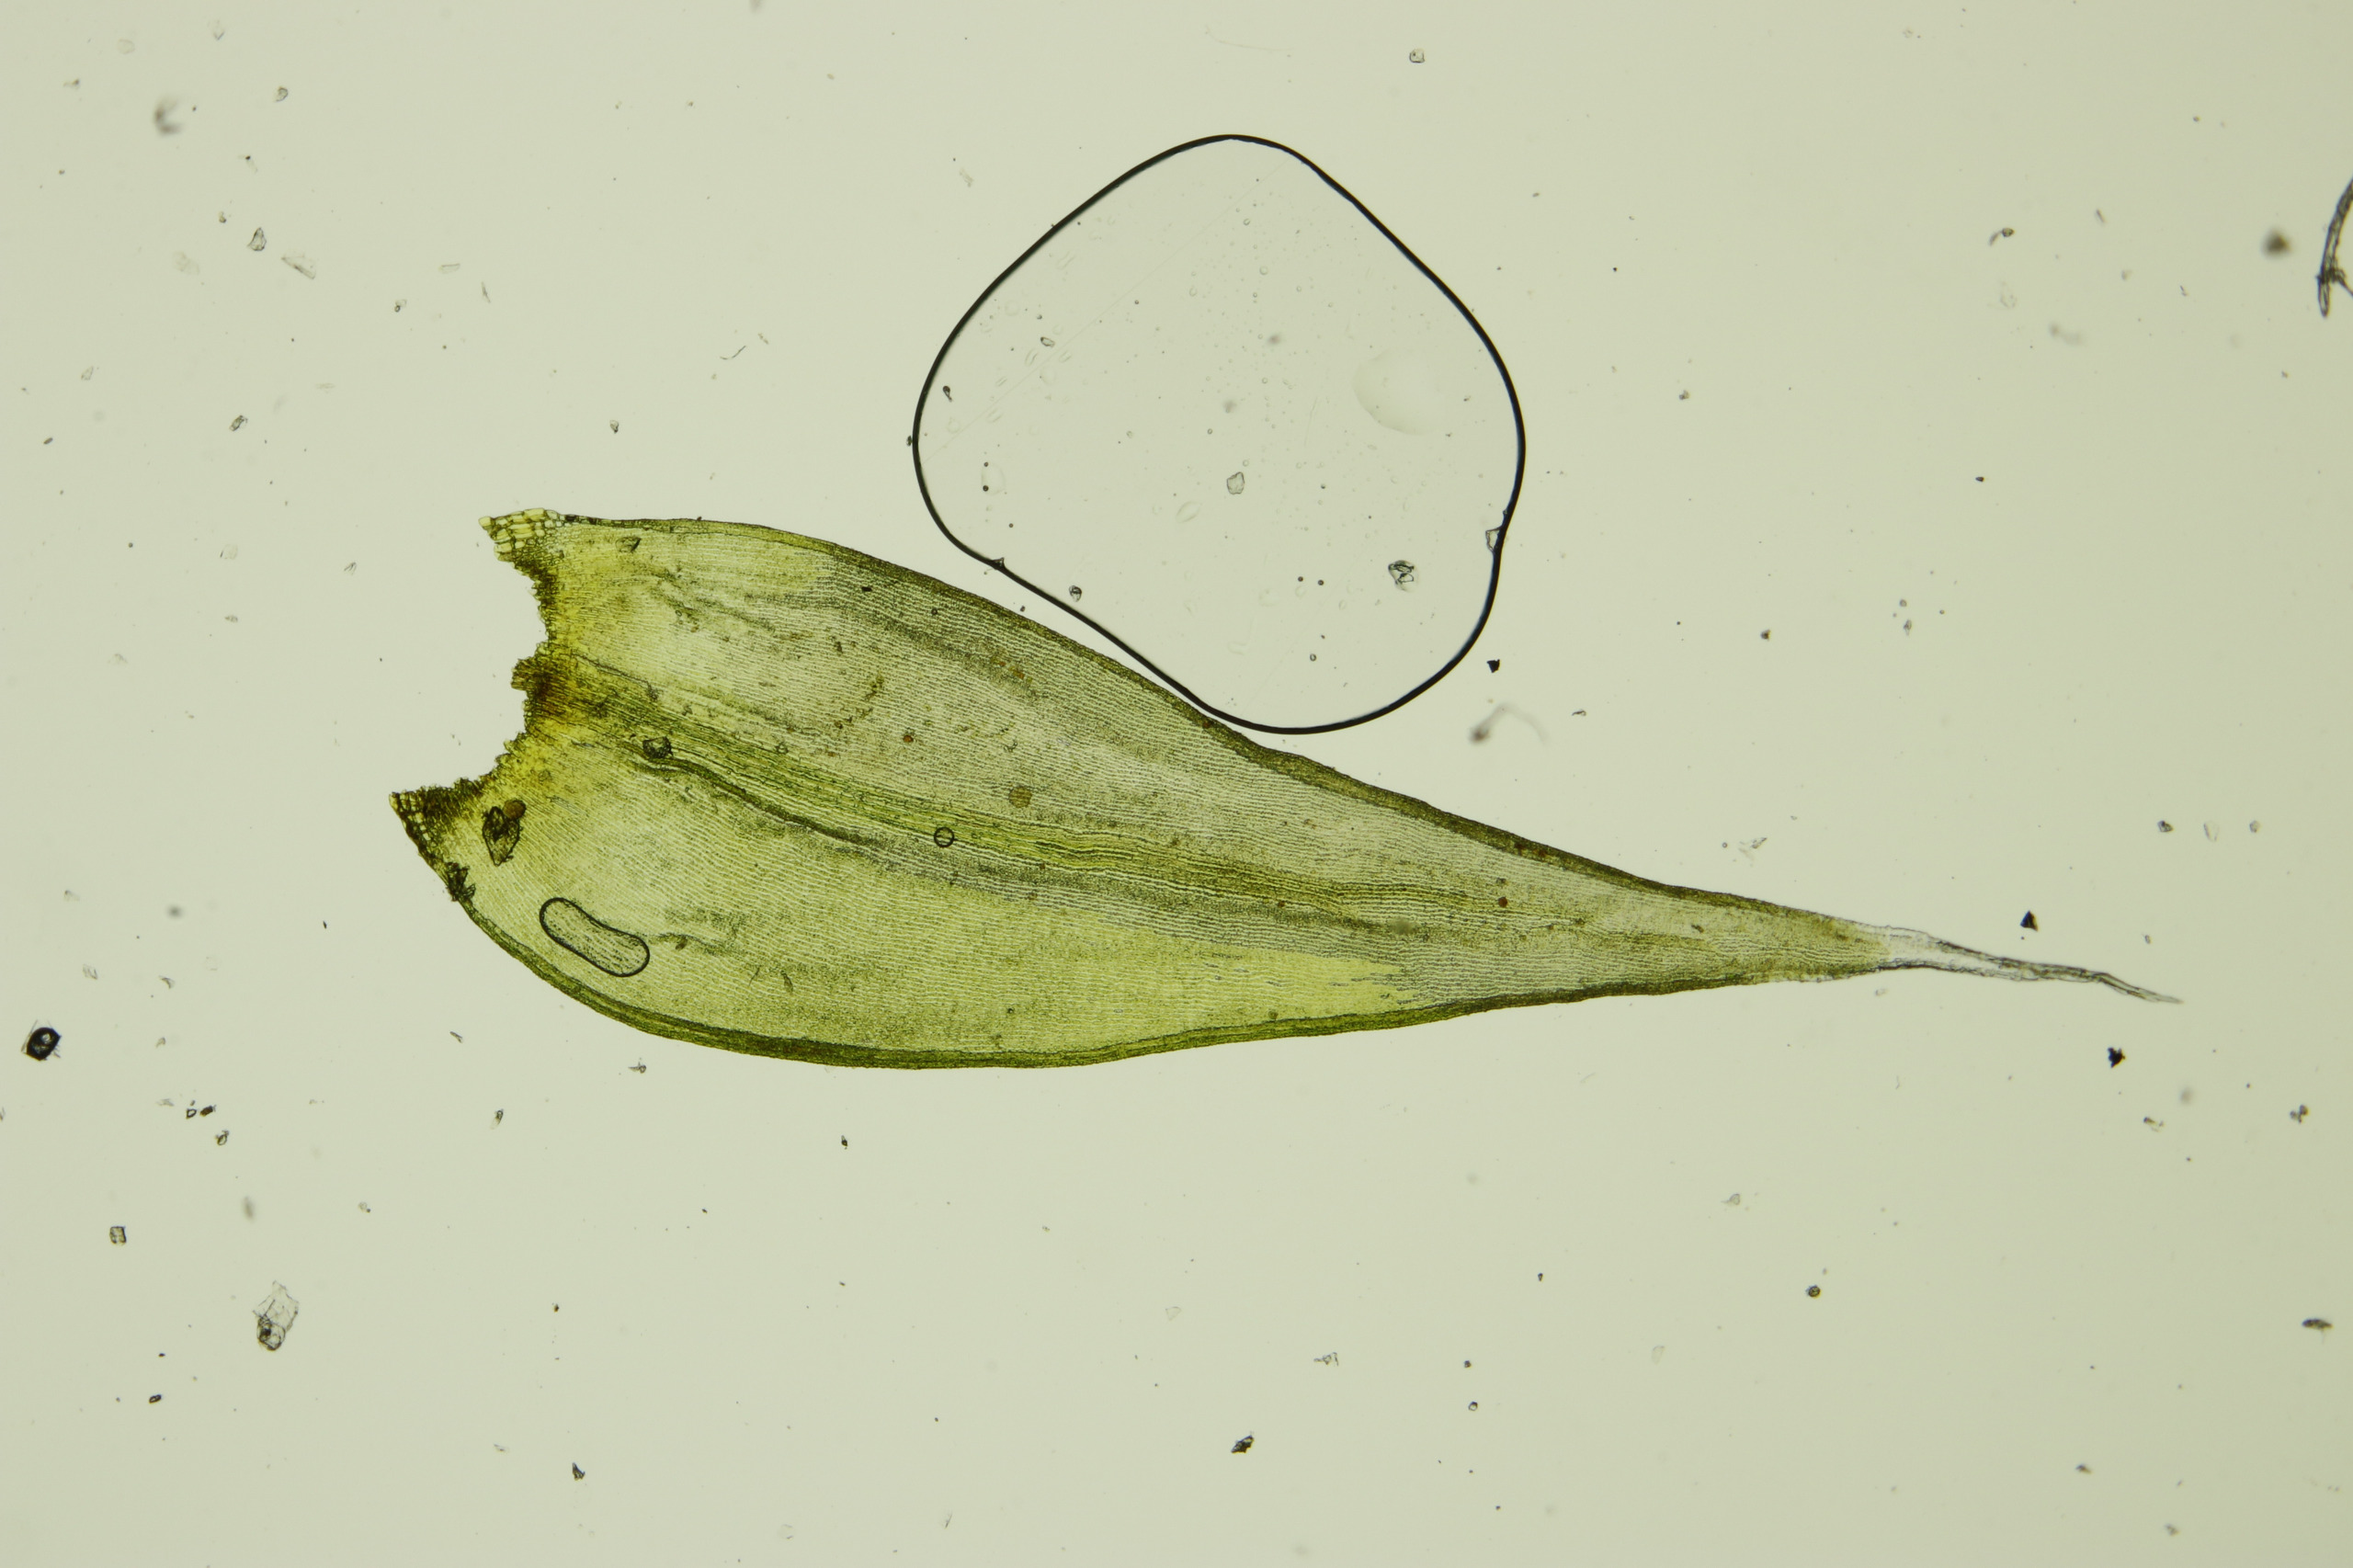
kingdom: Plantae
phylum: Bryophyta
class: Bryopsida
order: Grimmiales
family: Grimmiaceae
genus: Niphotrichum
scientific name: Niphotrichum ericoides
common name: Tætgrenet børstemos
